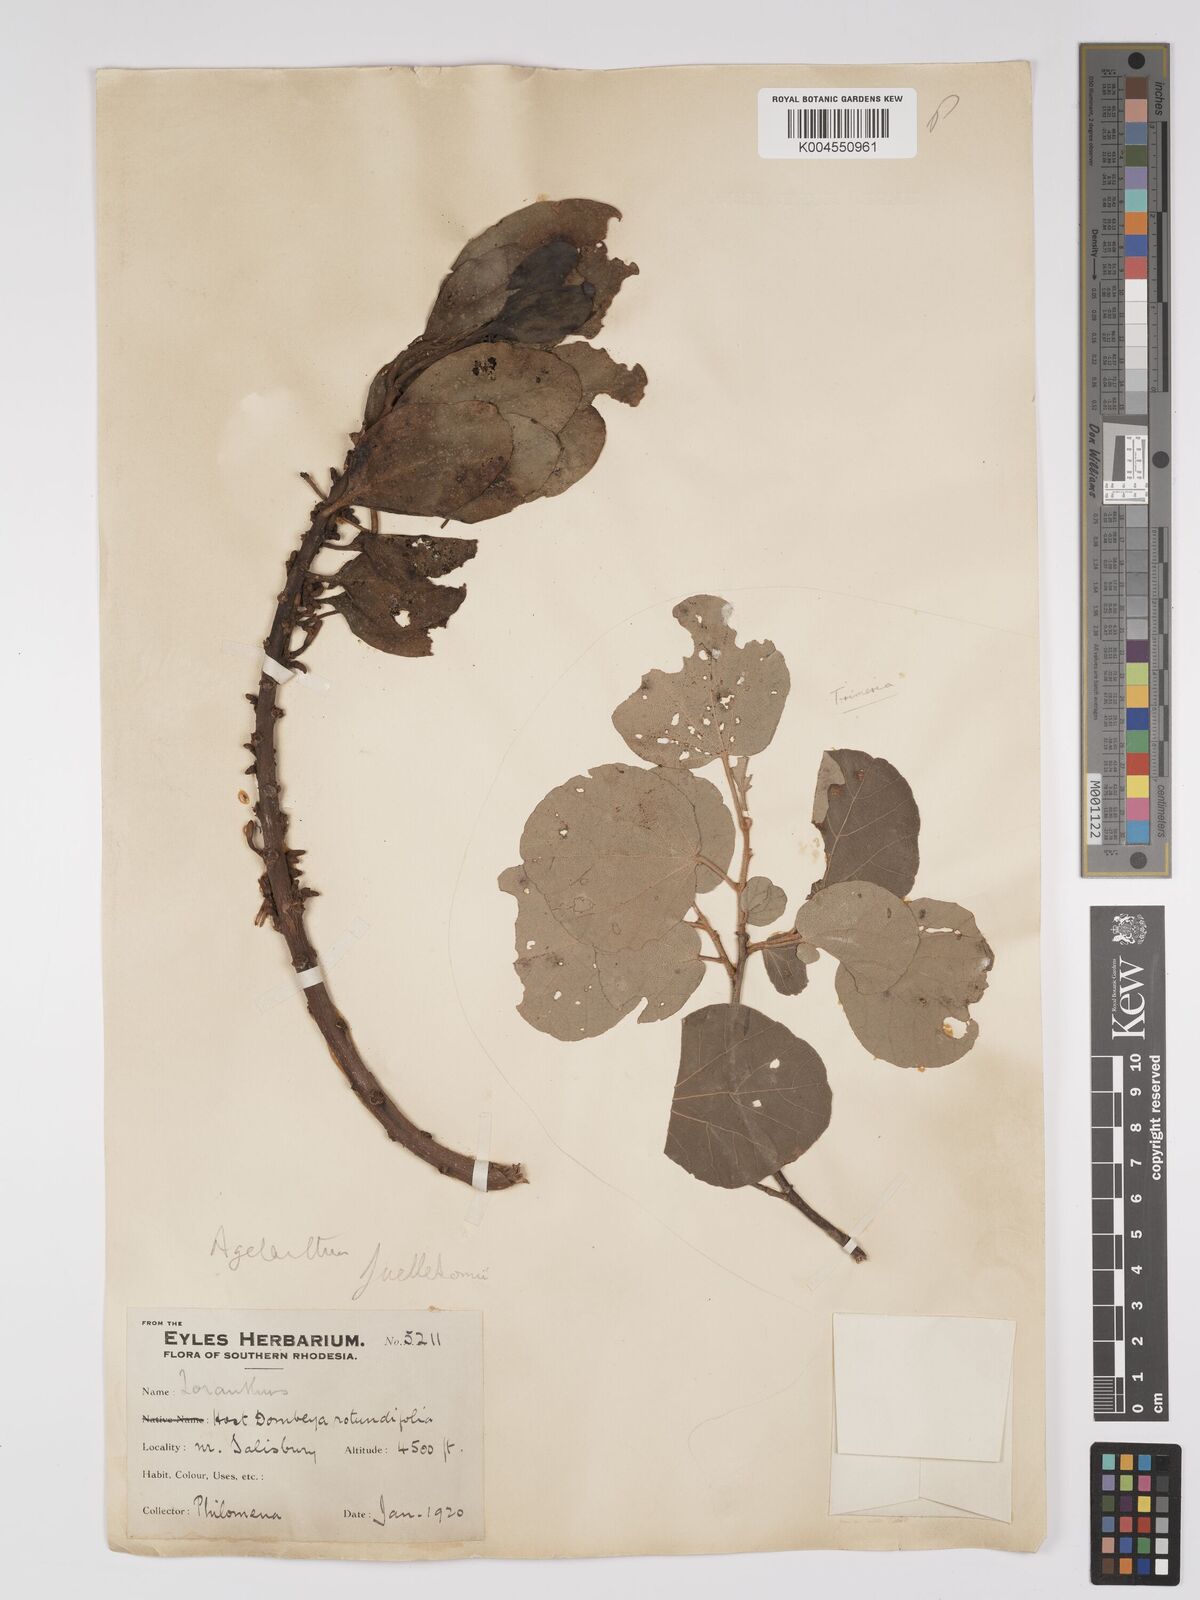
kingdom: Plantae
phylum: Tracheophyta
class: Magnoliopsida
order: Santalales
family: Loranthaceae
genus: Agelanthus
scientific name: Agelanthus fuellebornii
